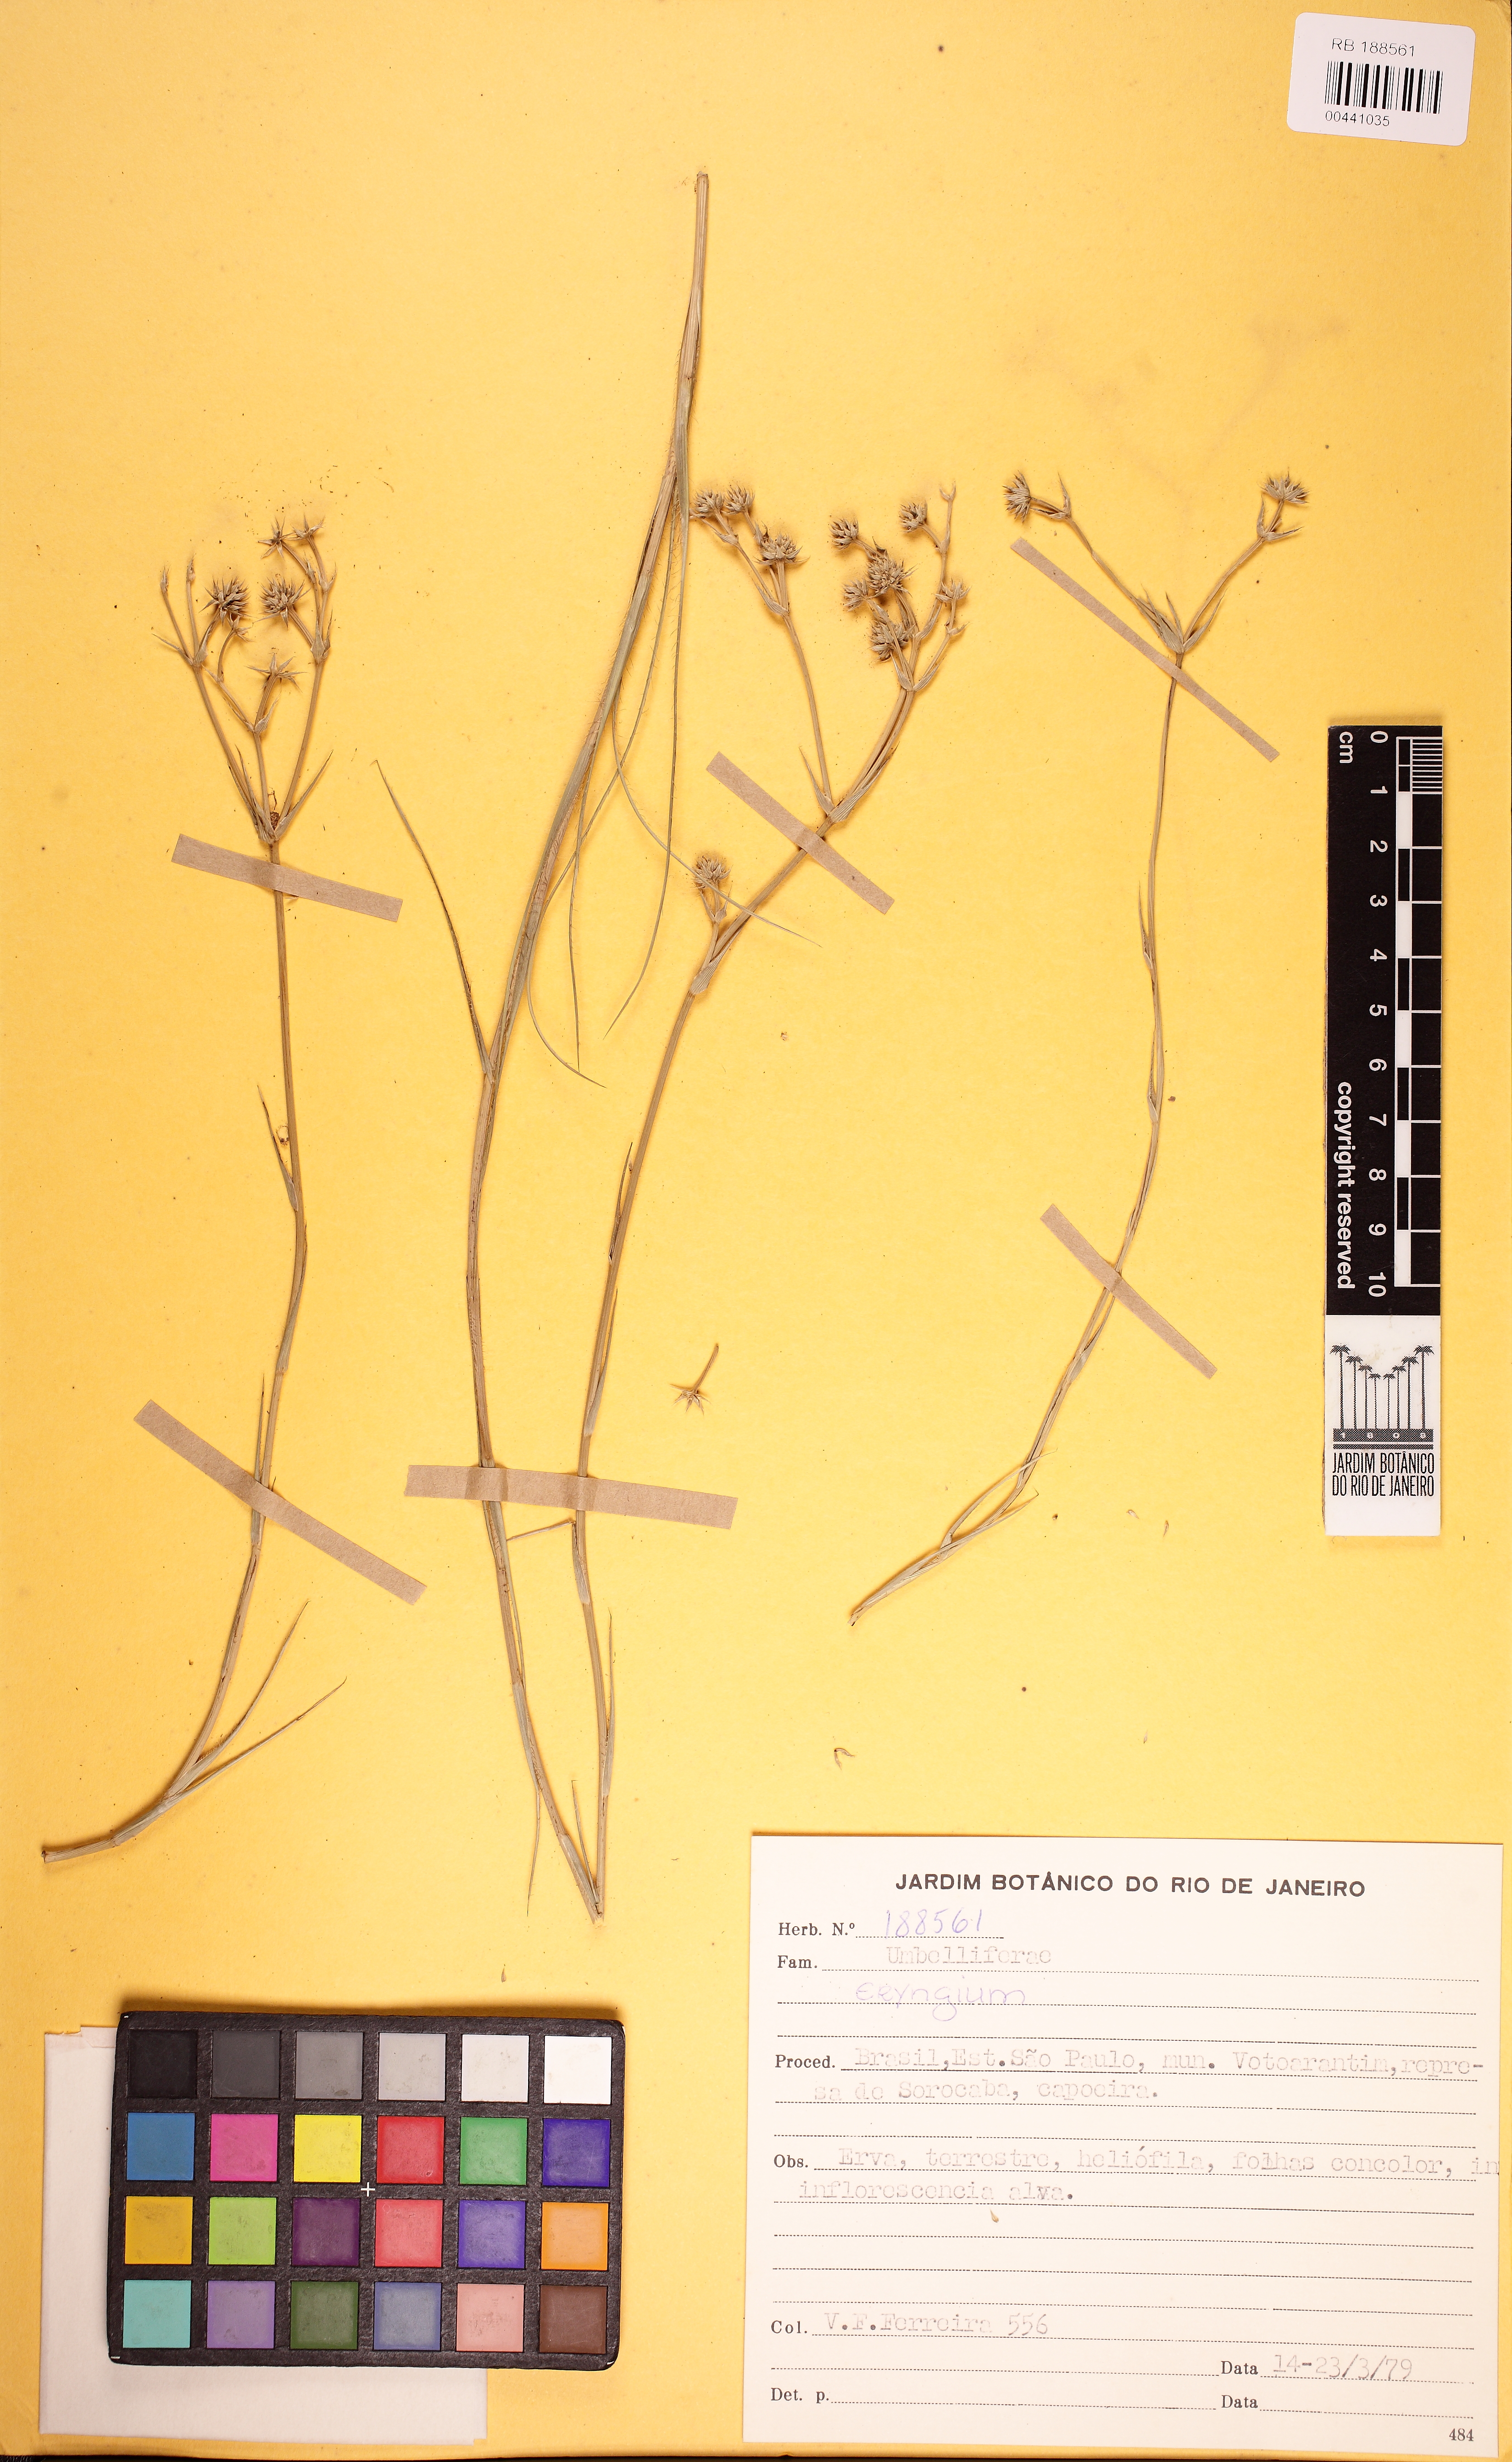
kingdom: Plantae
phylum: Tracheophyta
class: Magnoliopsida
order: Apiales
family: Apiaceae
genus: Eryngium
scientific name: Eryngium junceum
